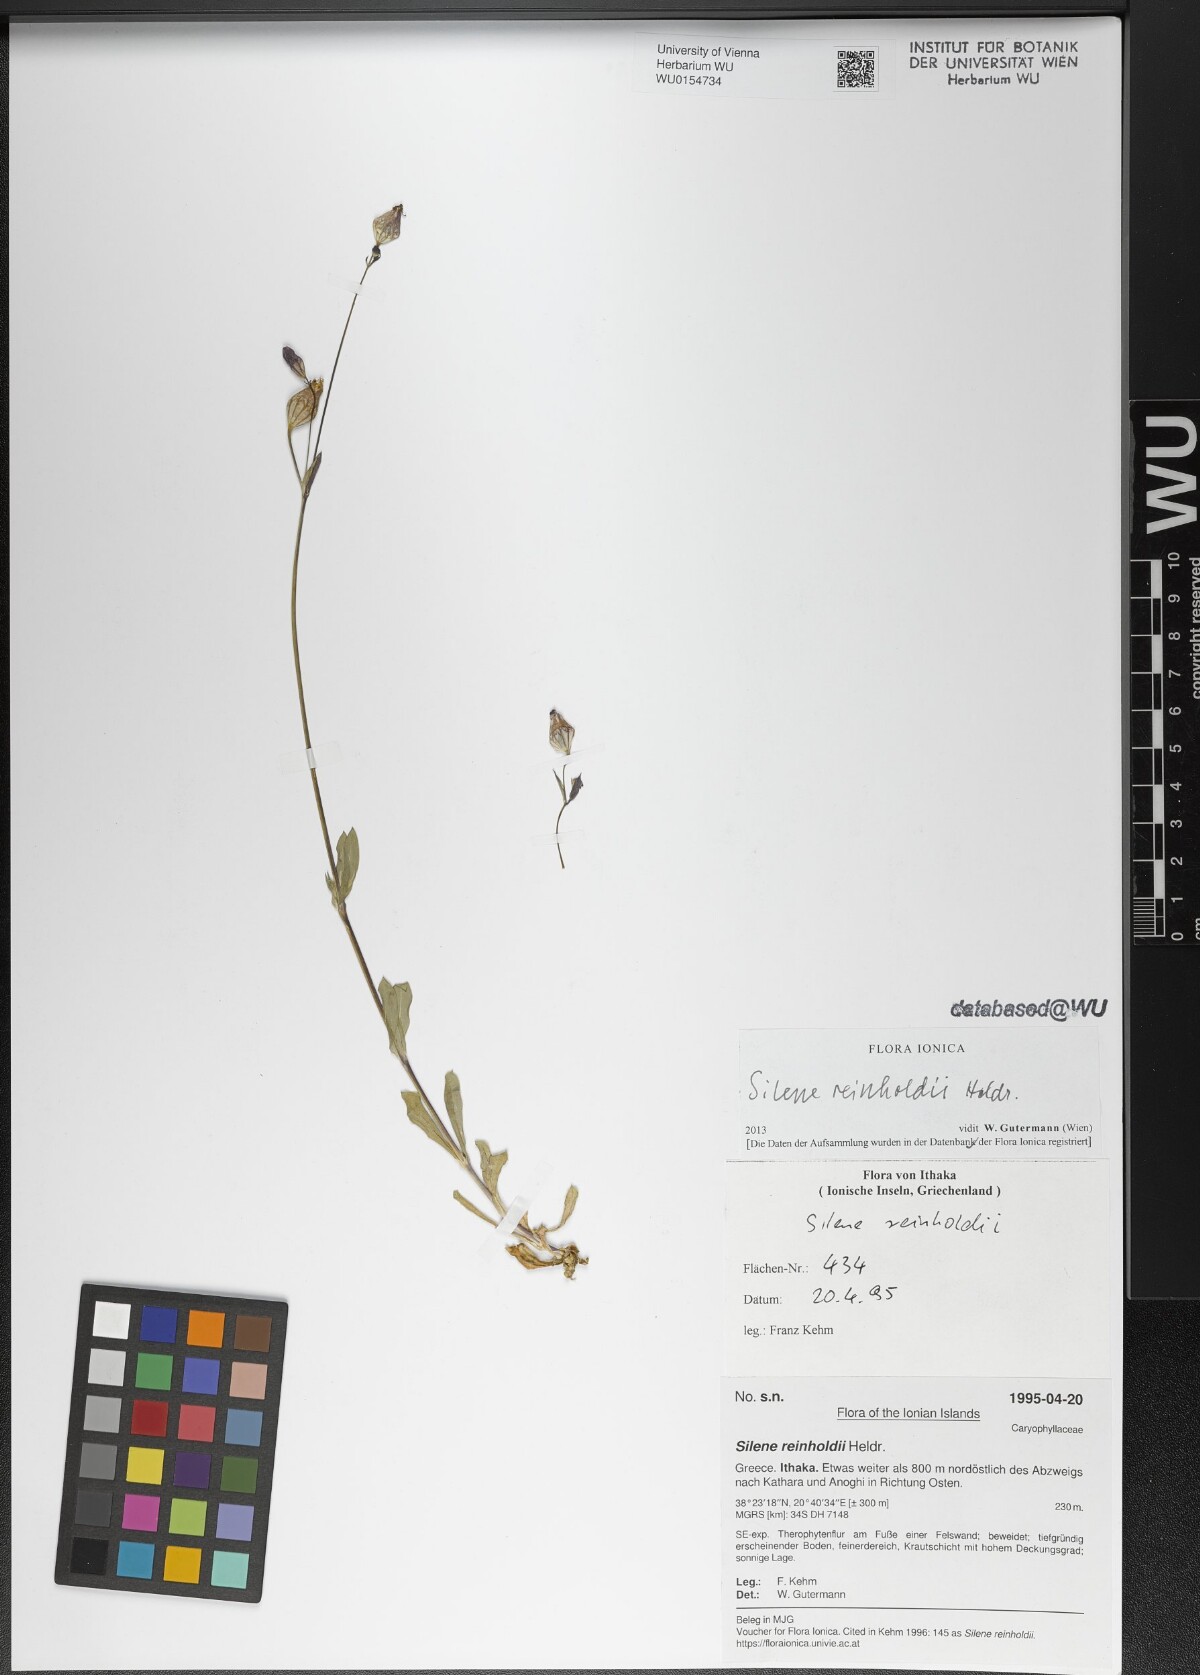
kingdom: Plantae
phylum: Tracheophyta
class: Magnoliopsida
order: Caryophyllales
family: Caryophyllaceae
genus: Silene
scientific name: Silene reinholdii
